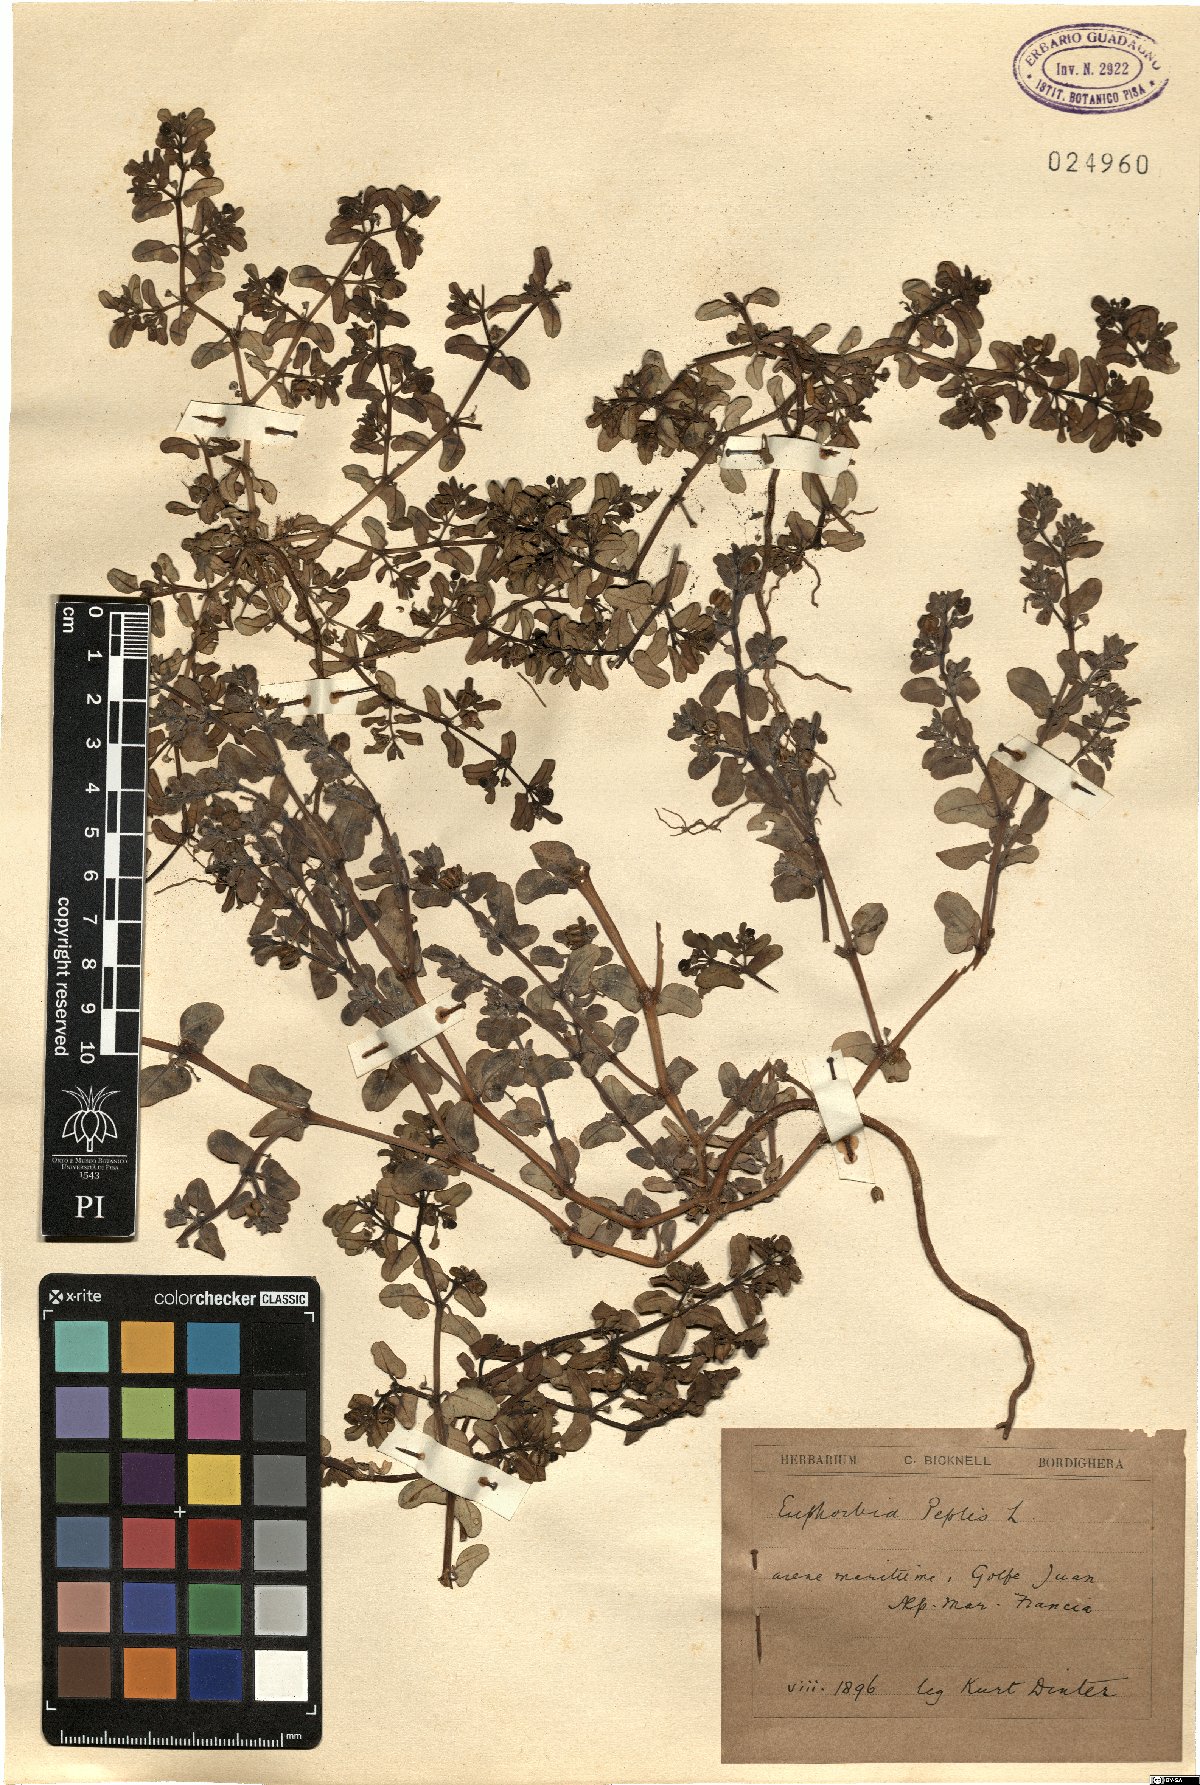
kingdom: Plantae
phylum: Tracheophyta
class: Magnoliopsida
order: Malpighiales
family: Euphorbiaceae
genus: Euphorbia
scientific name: Euphorbia peplis
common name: Purple spurge
